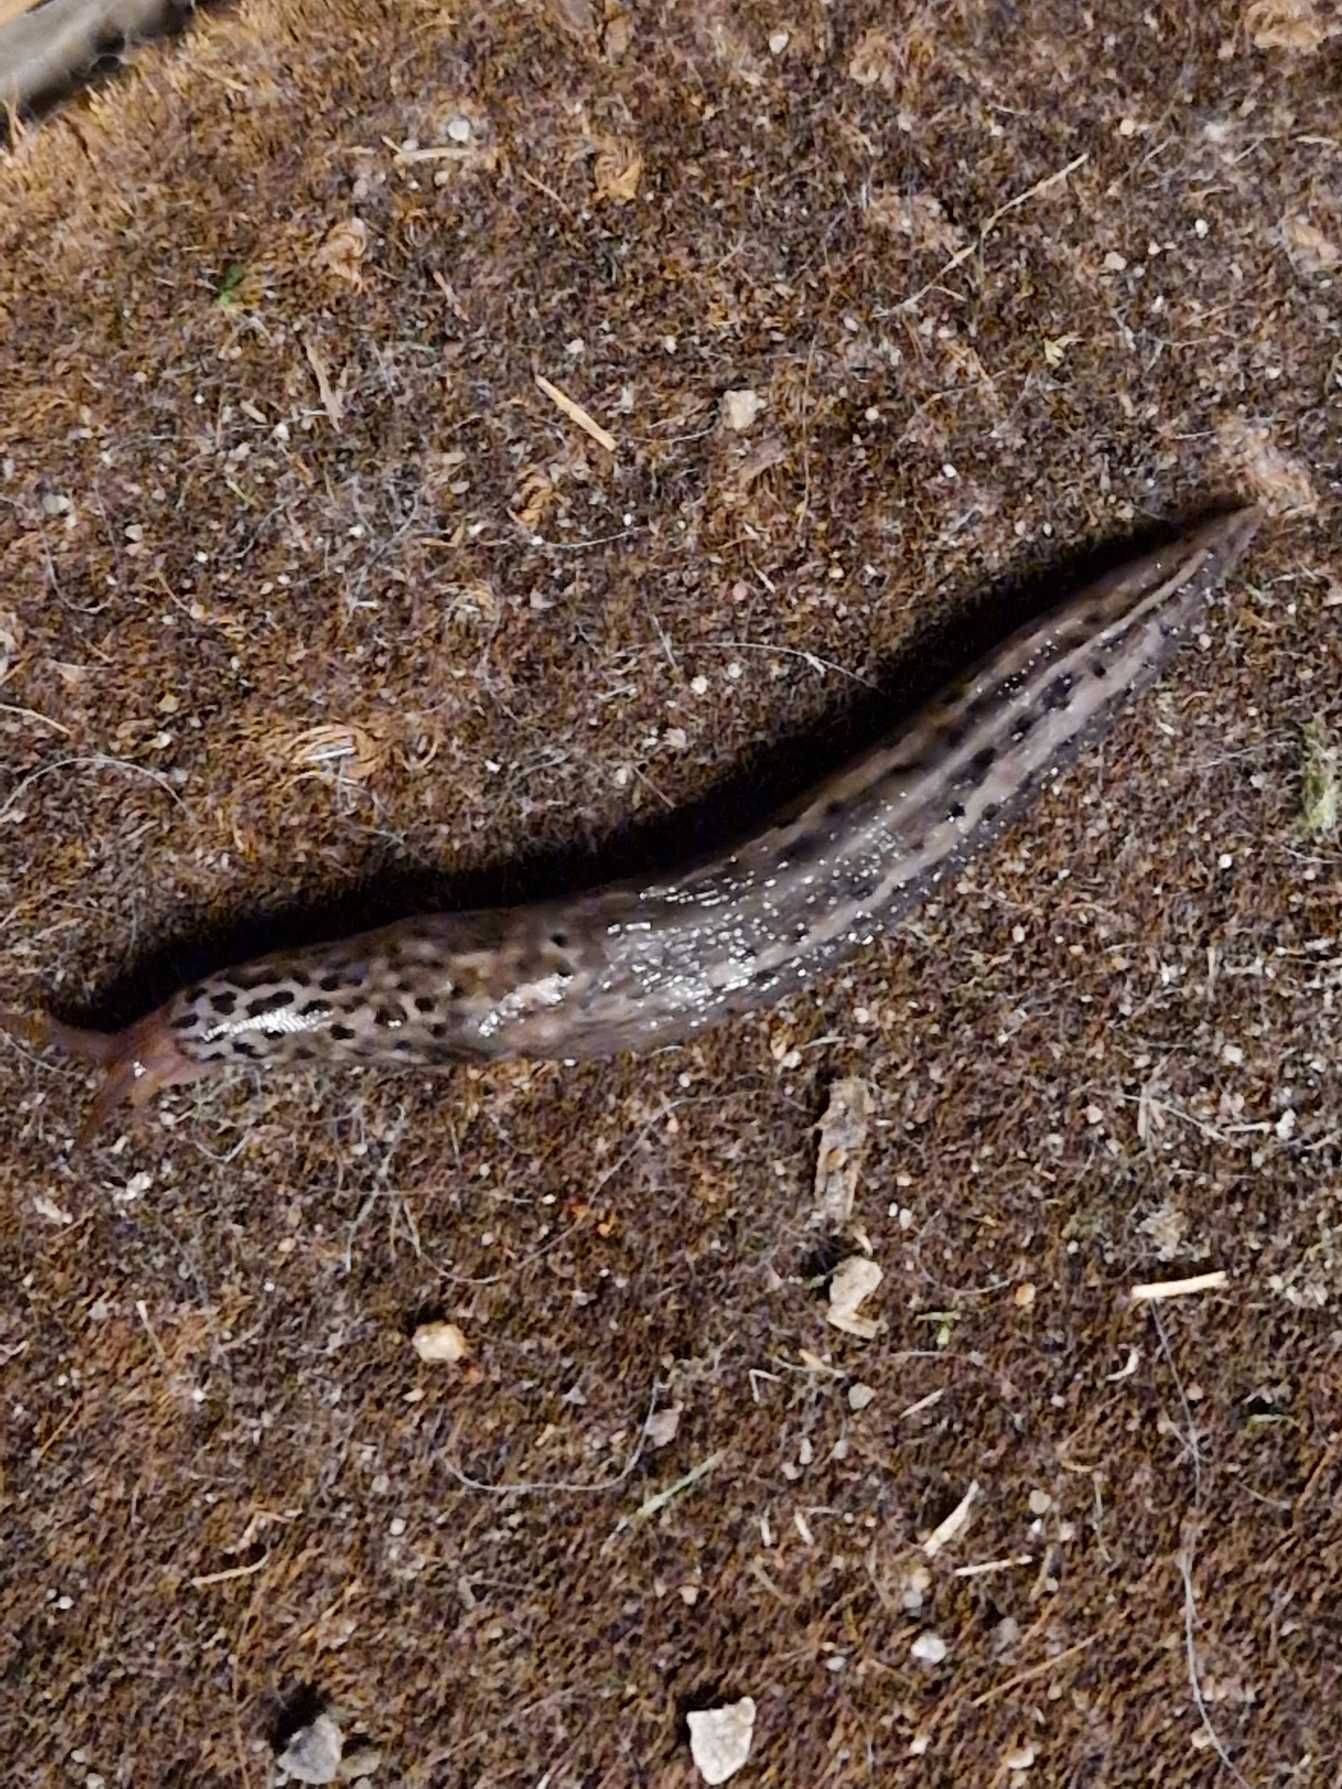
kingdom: Animalia
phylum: Mollusca
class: Gastropoda
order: Stylommatophora
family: Limacidae
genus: Limax
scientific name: Limax maximus
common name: Pantersnegl
